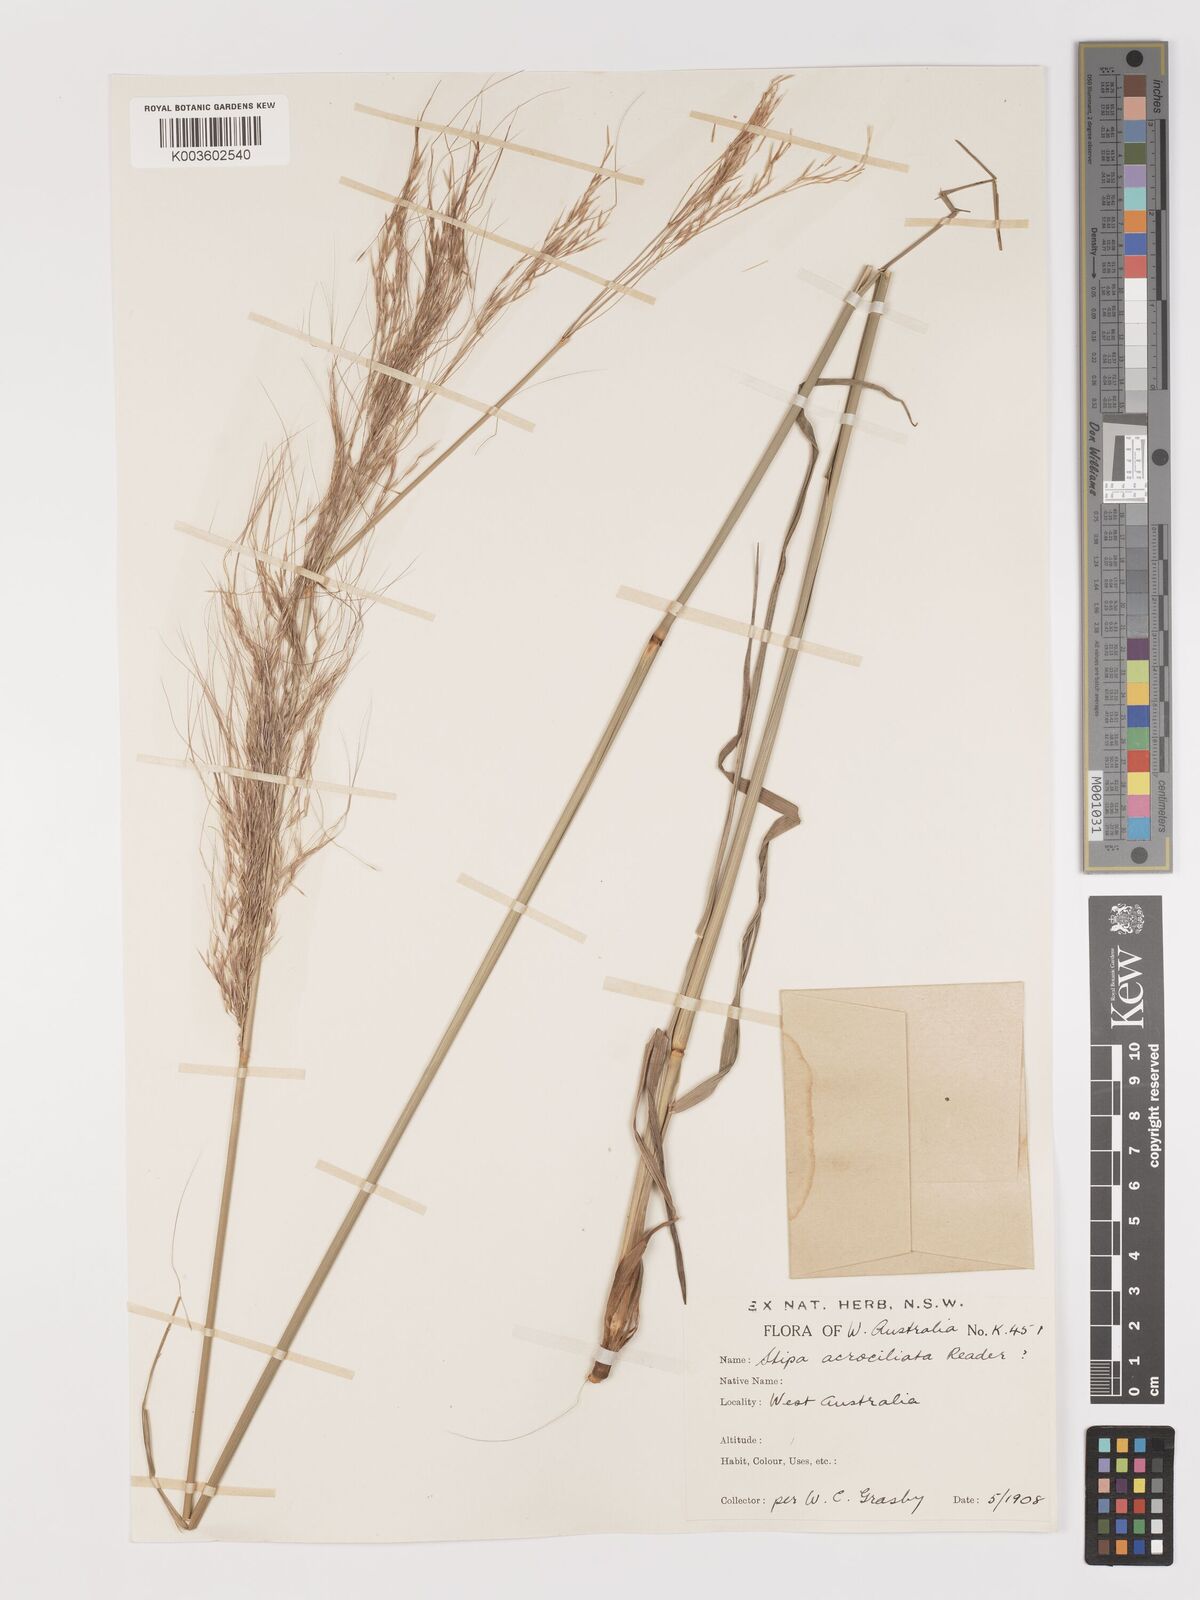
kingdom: Plantae
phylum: Tracheophyta
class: Liliopsida
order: Poales
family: Poaceae
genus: Austrostipa
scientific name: Austrostipa acrociliata
